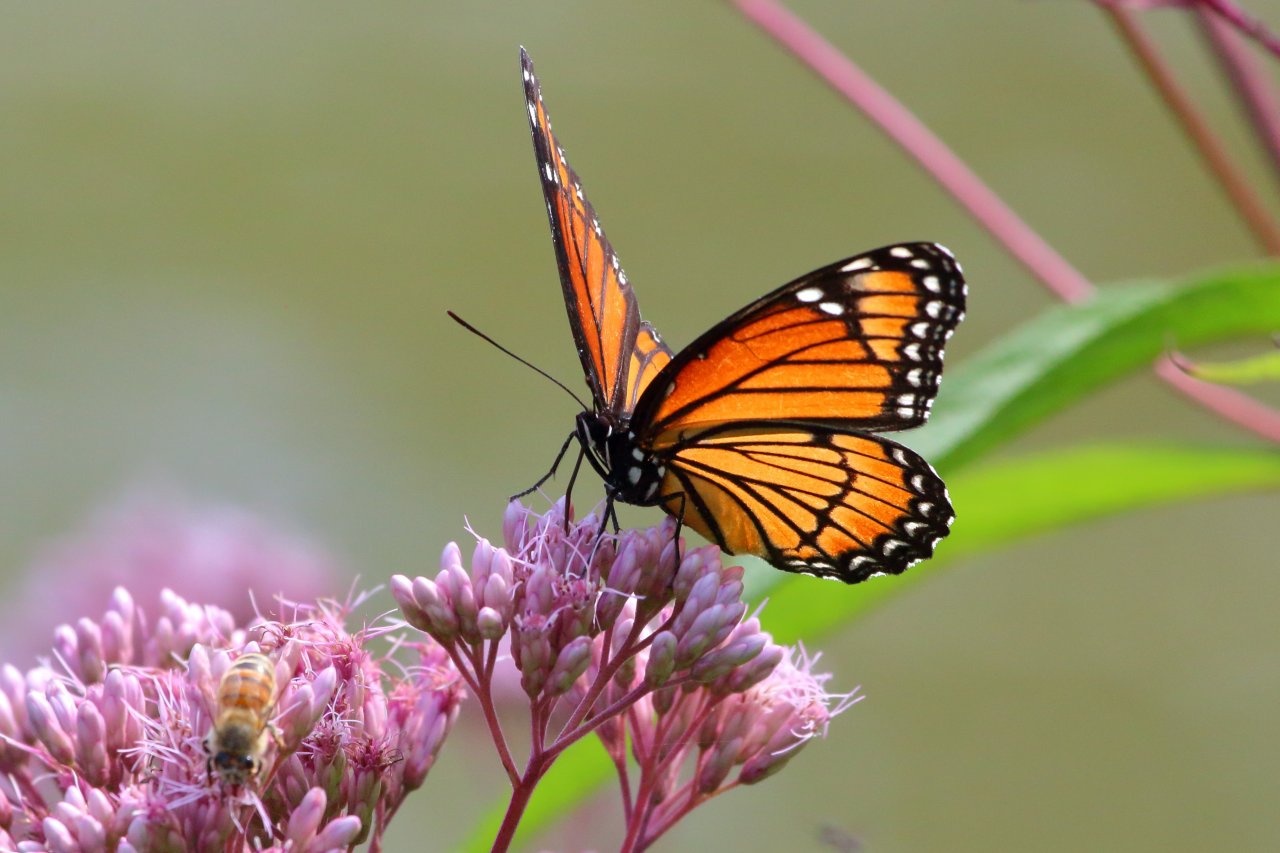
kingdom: Animalia
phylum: Arthropoda
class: Insecta
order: Lepidoptera
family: Nymphalidae
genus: Limenitis
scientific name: Limenitis archippus
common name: Viceroy
